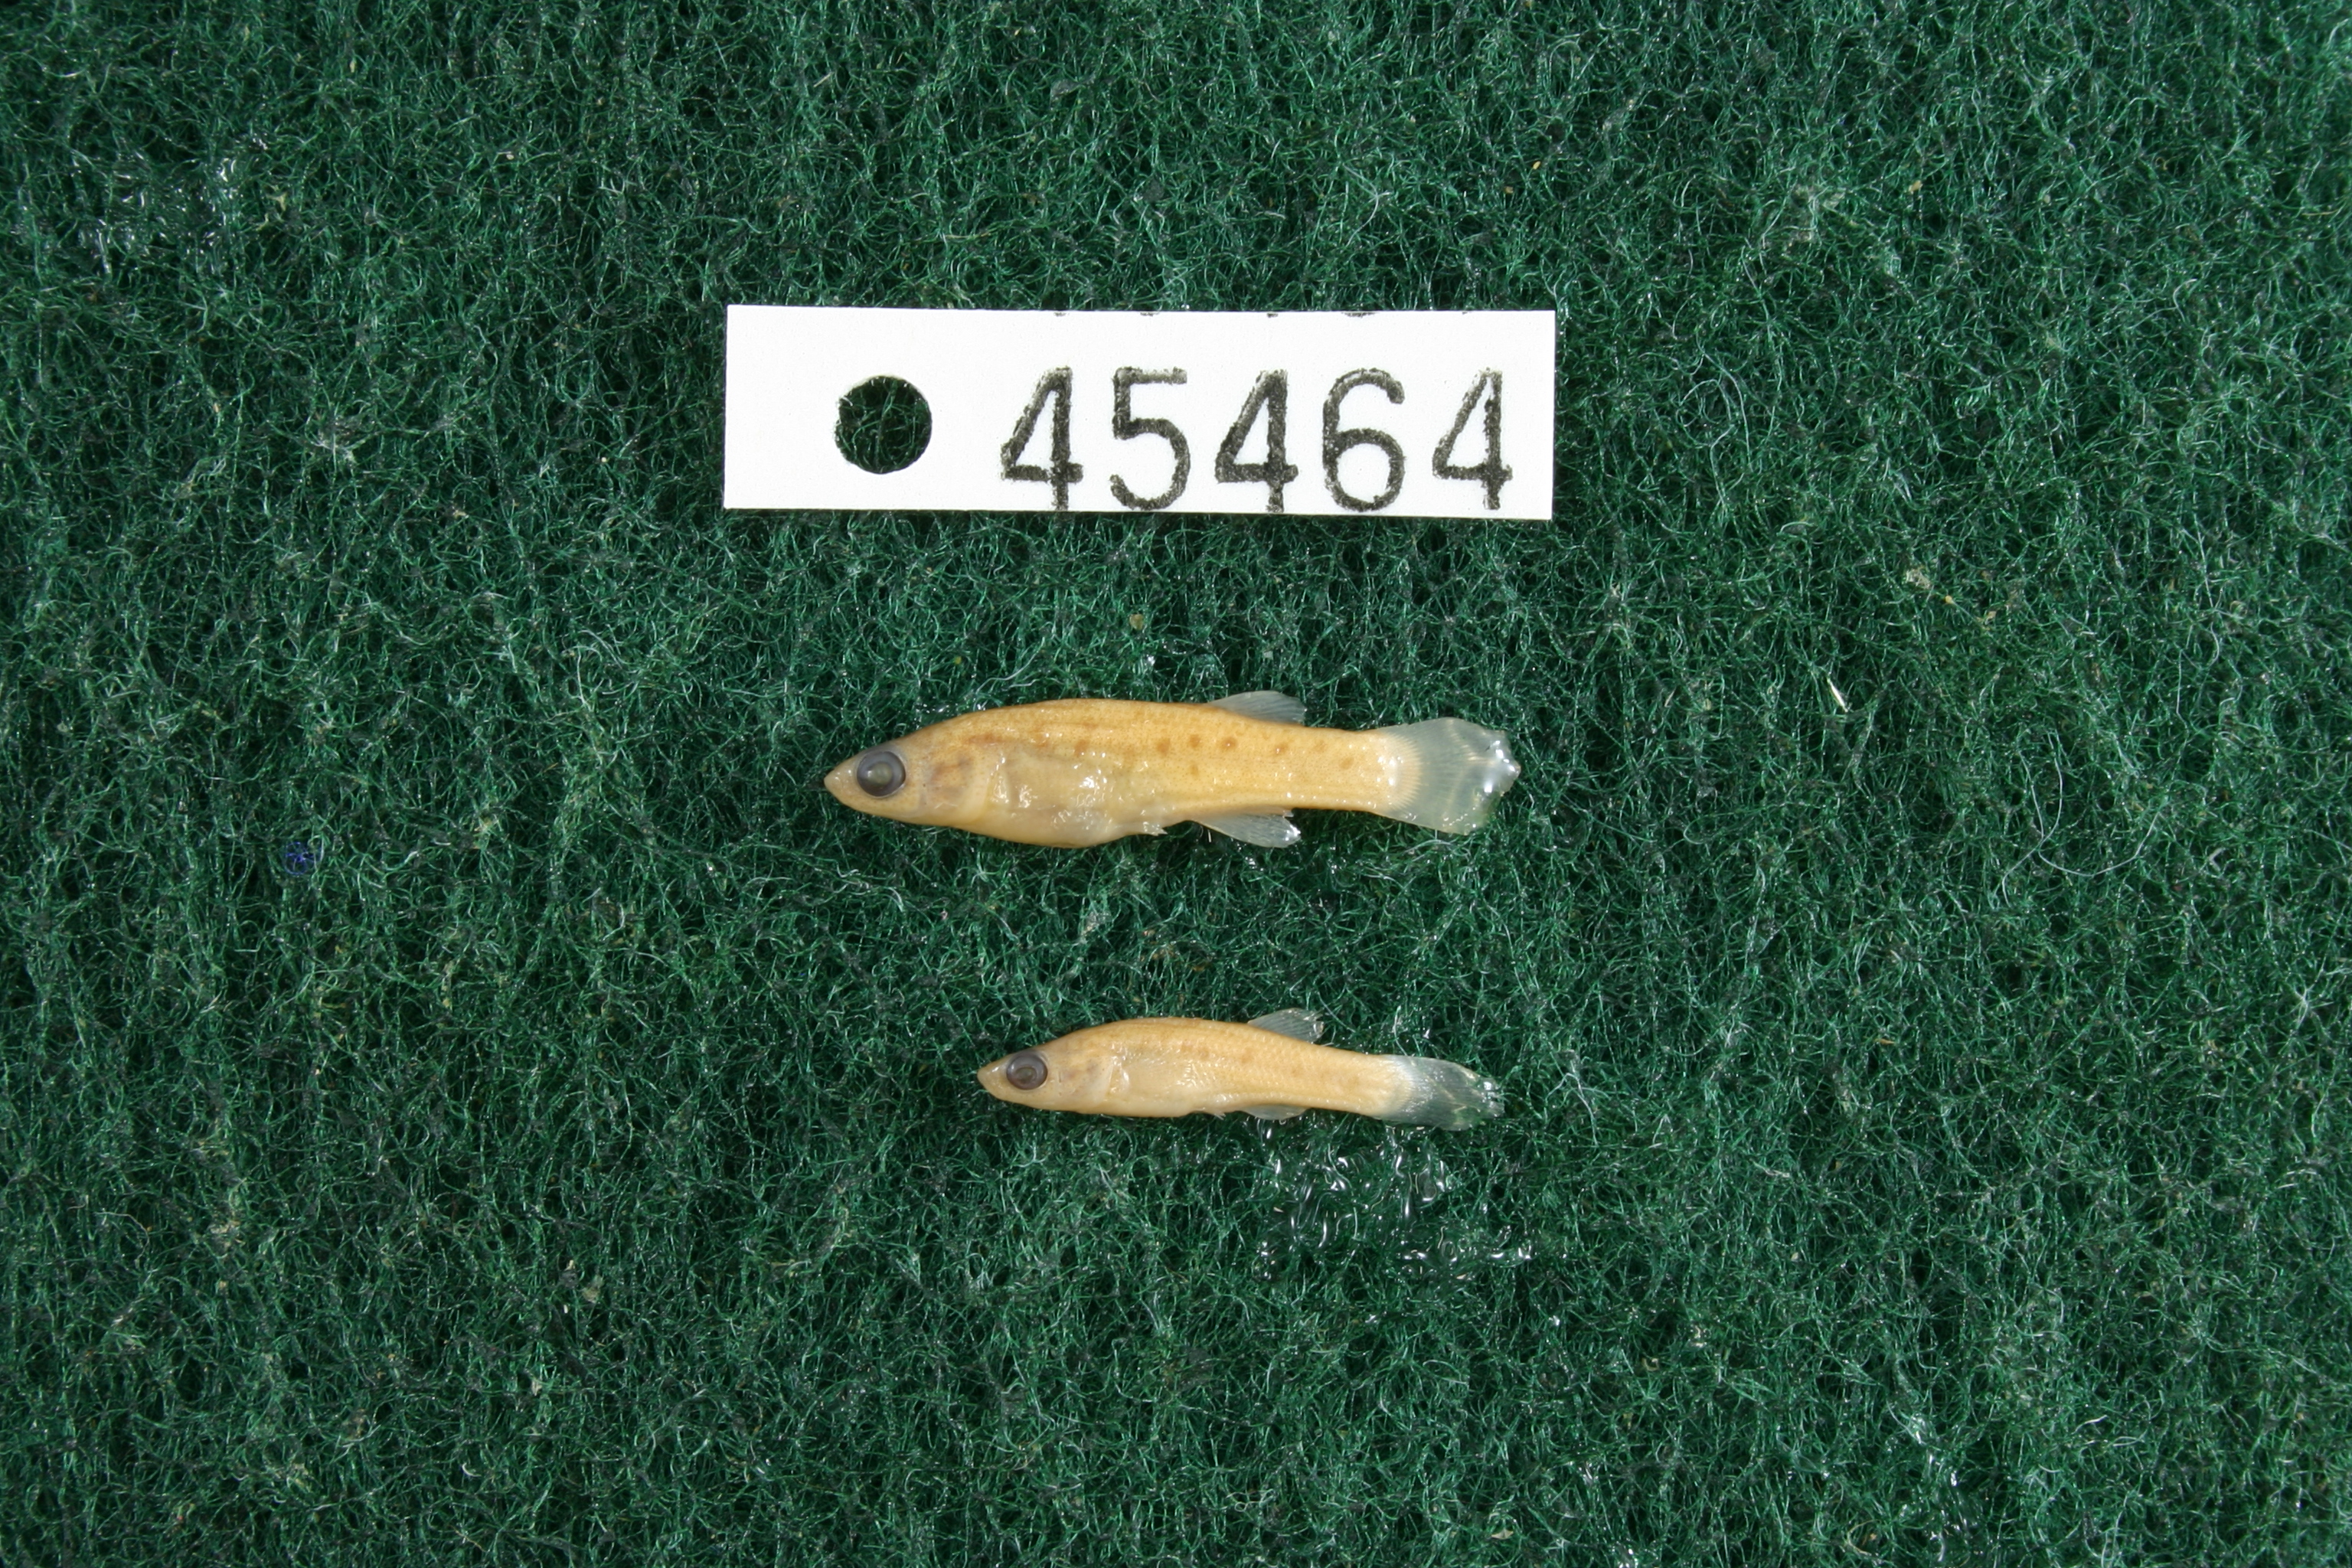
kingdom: Animalia
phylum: Chordata
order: Cyprinodontiformes
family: Fundulidae
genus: Fundulus
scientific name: Fundulus pulvereus
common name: Bayou killifish
